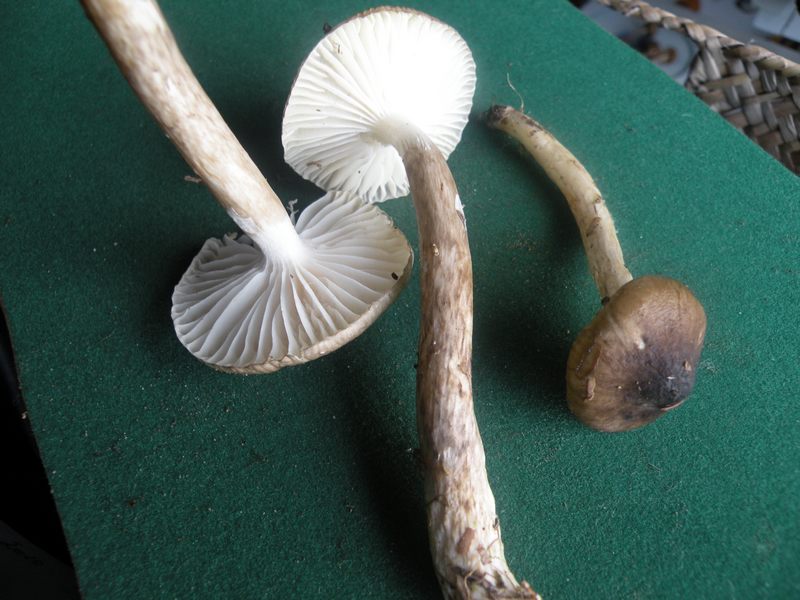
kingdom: Fungi
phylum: Basidiomycota
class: Agaricomycetes
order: Agaricales
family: Hygrophoraceae
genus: Hygrophorus
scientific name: Hygrophorus olivaceoalbus
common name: hvidbrun sneglehat
